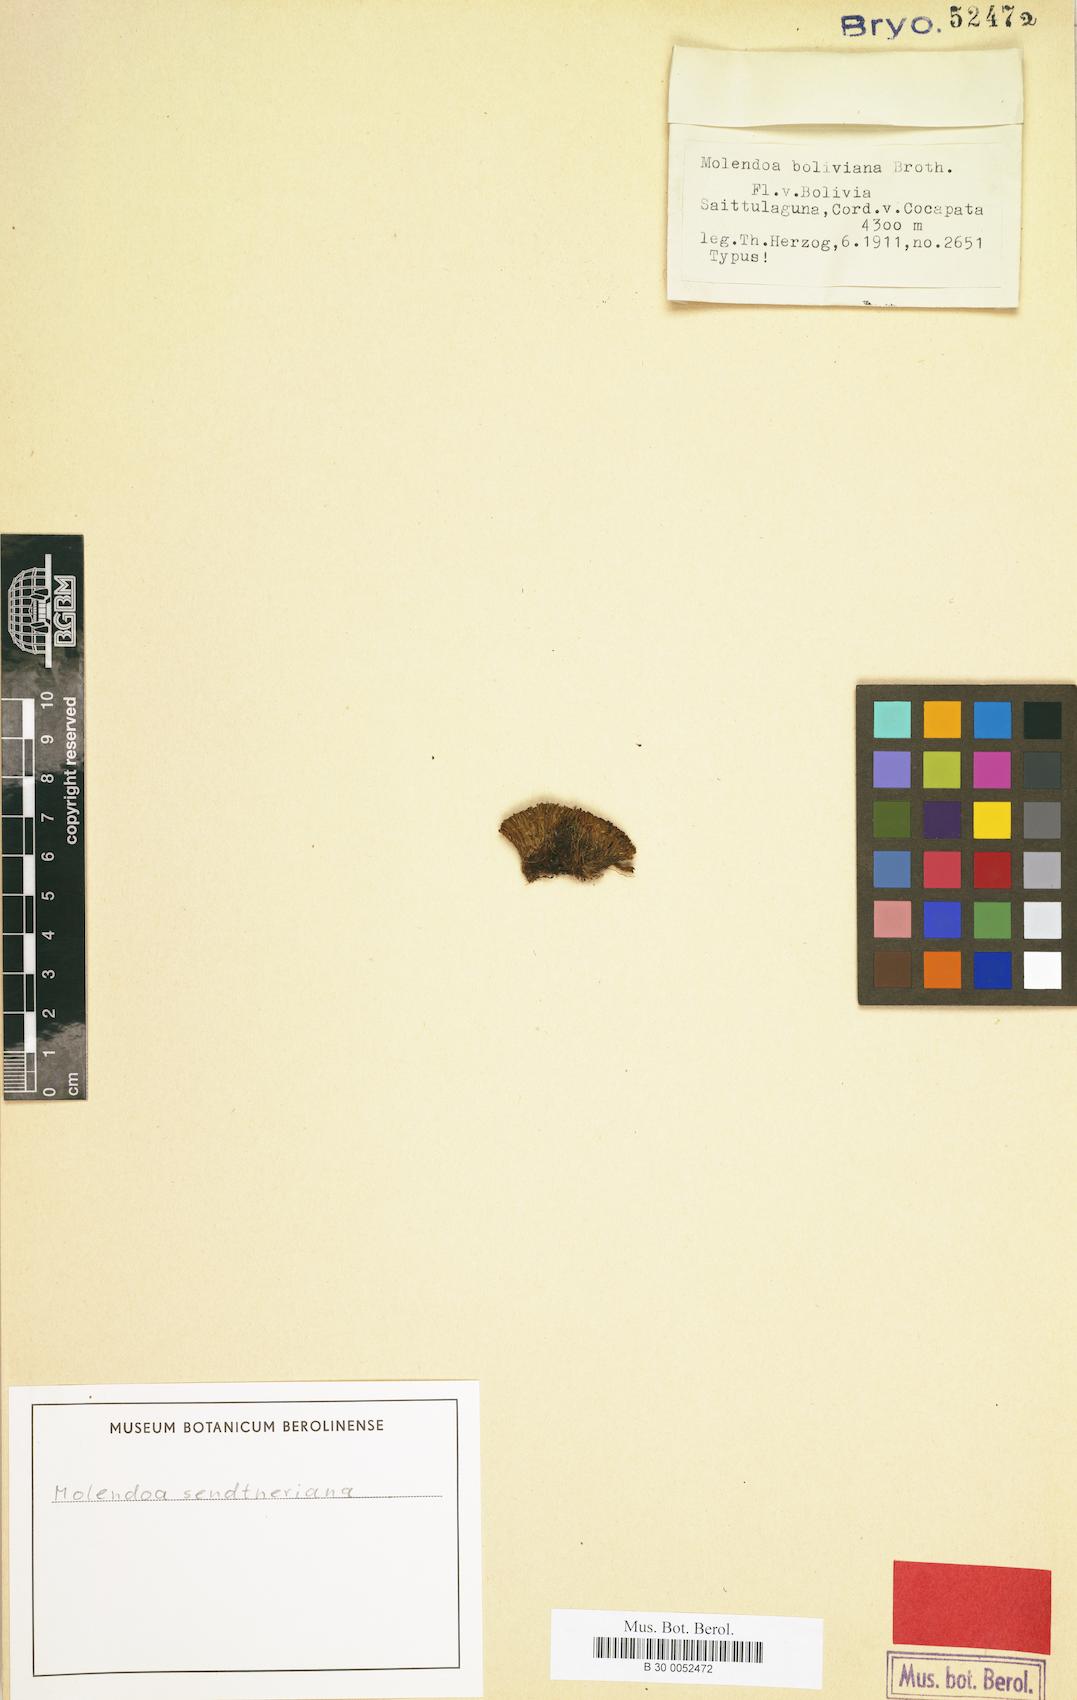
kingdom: Plantae
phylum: Bryophyta
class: Bryopsida
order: Pottiales
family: Pottiaceae
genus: Molendoa
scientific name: Molendoa sendtneriana
